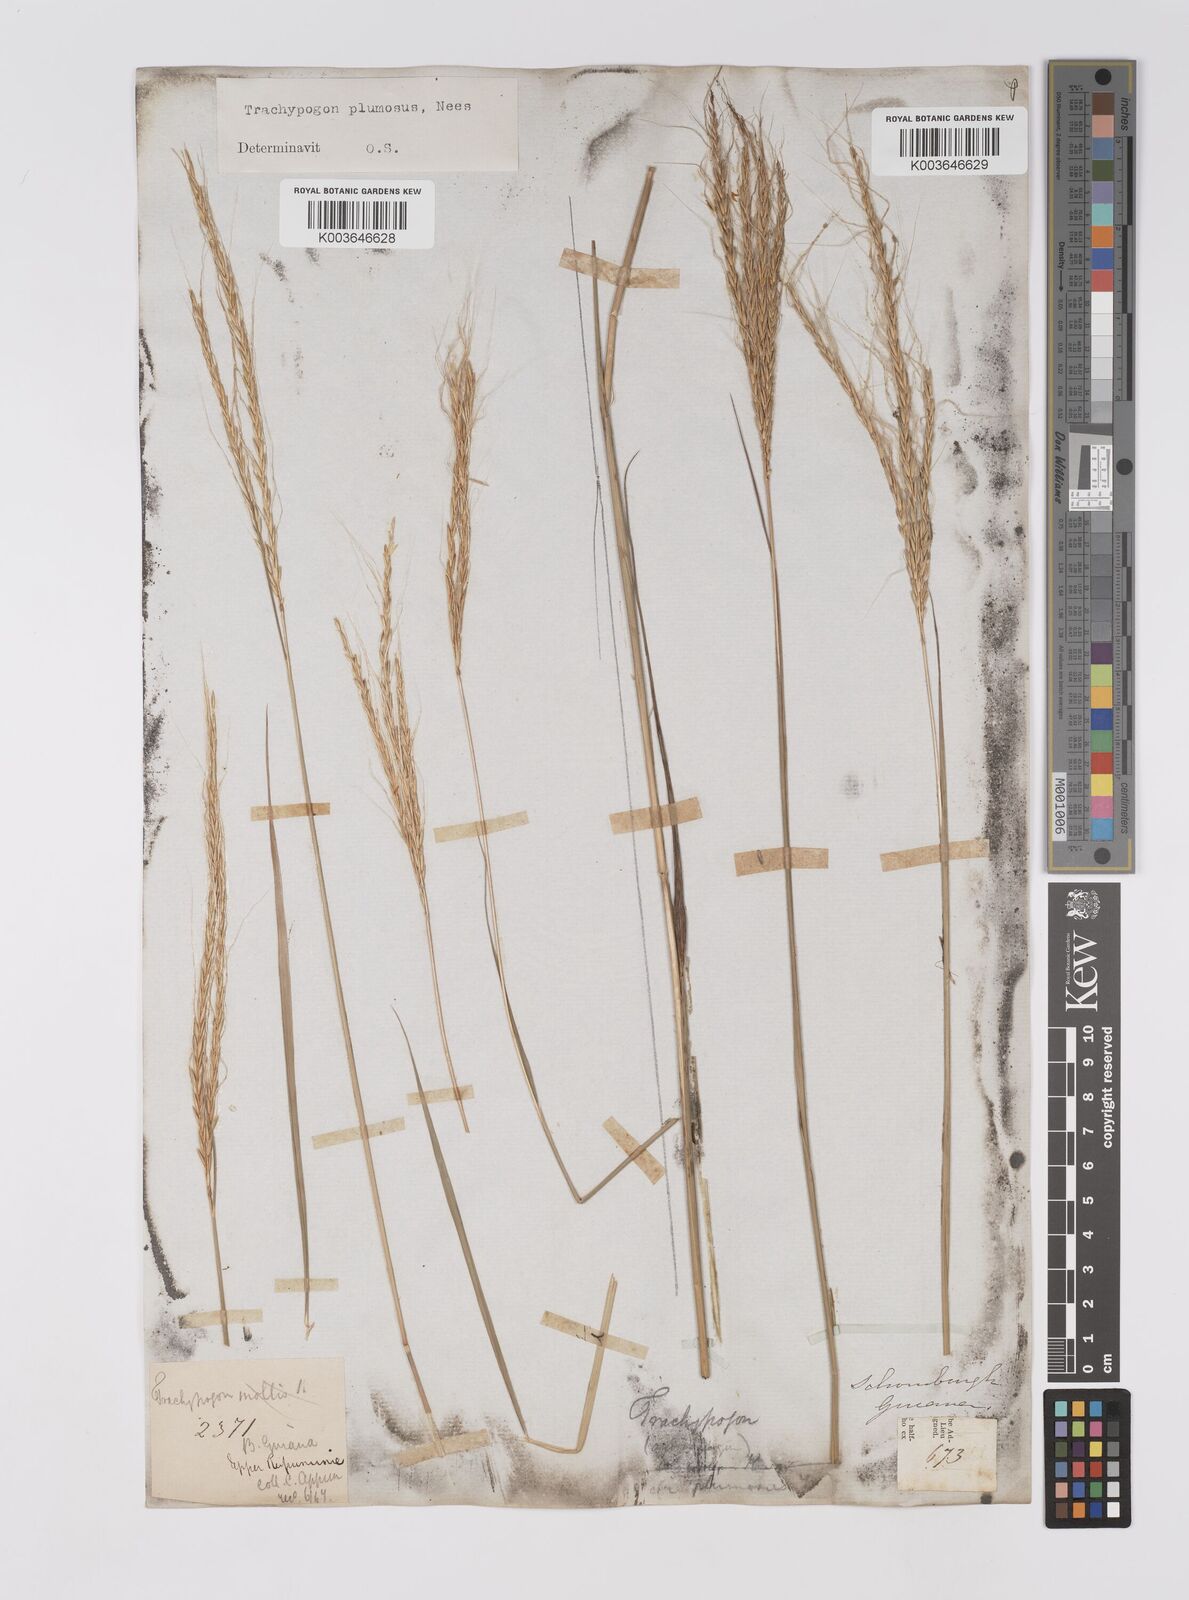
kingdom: Plantae
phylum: Tracheophyta
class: Liliopsida
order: Poales
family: Poaceae
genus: Trachypogon
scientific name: Trachypogon spicatus
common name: Crinkle-awn
